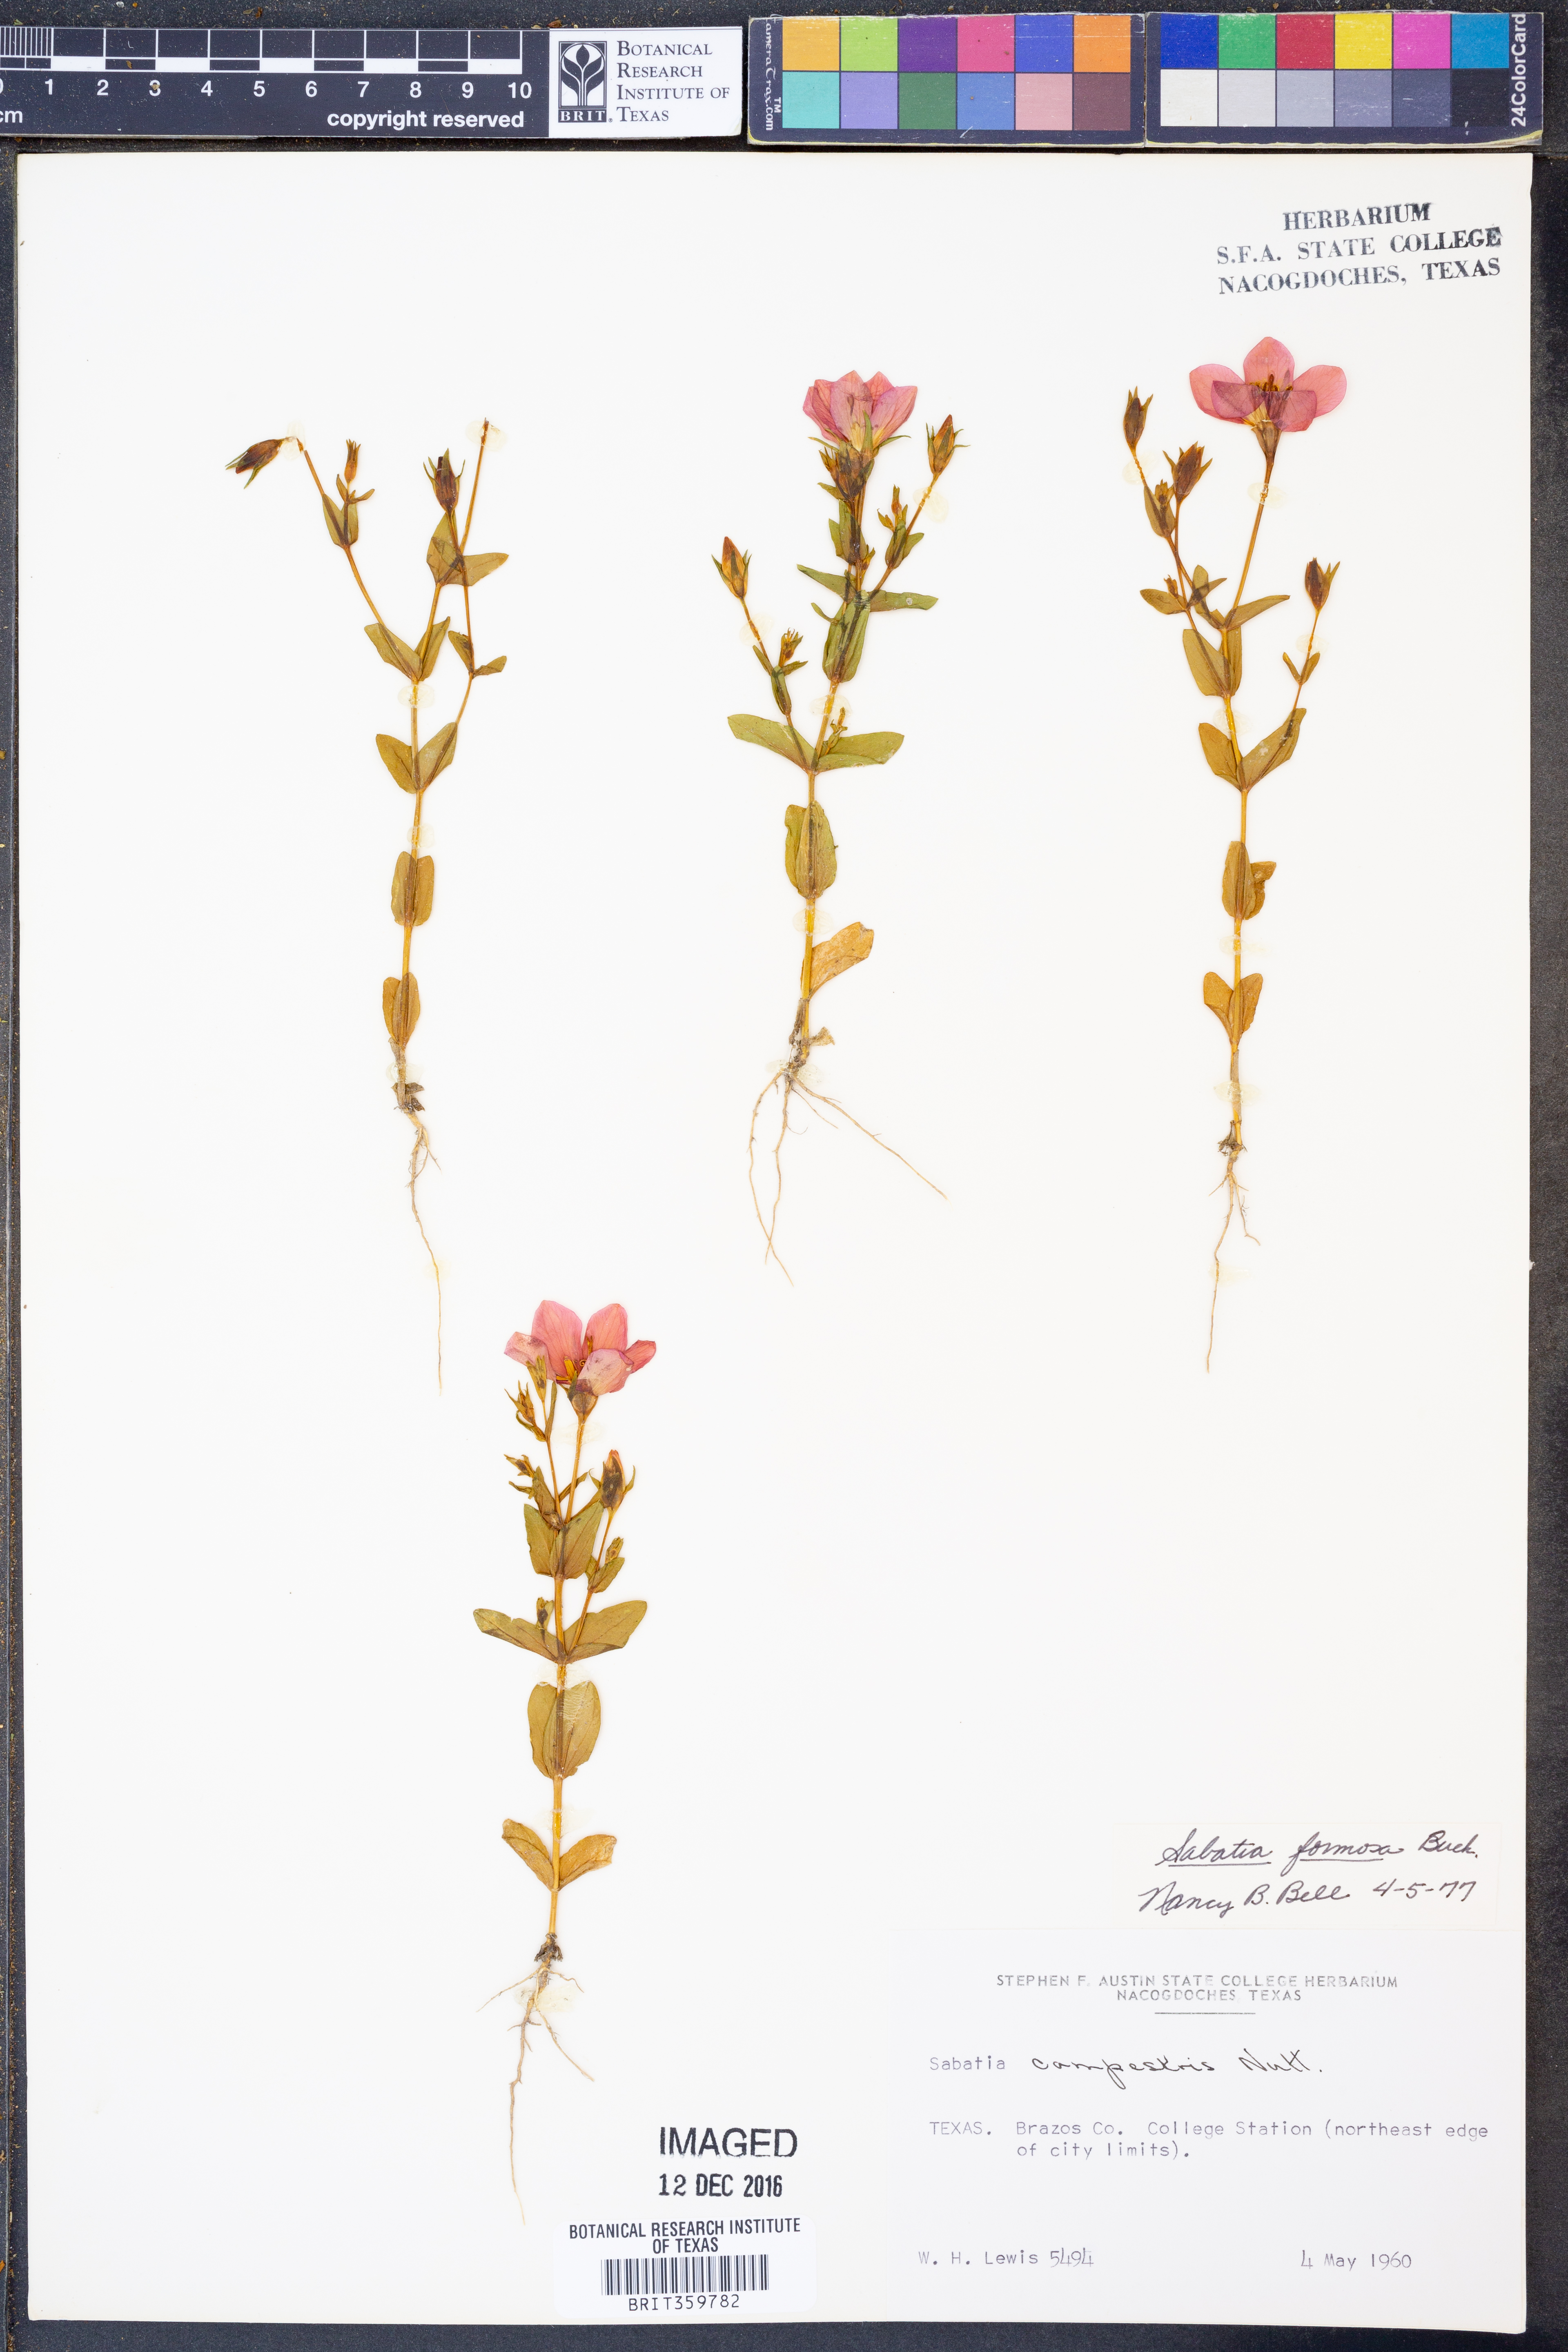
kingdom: Plantae
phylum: Tracheophyta
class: Magnoliopsida
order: Gentianales
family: Gentianaceae
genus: Sabatia
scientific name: Sabatia formosa
